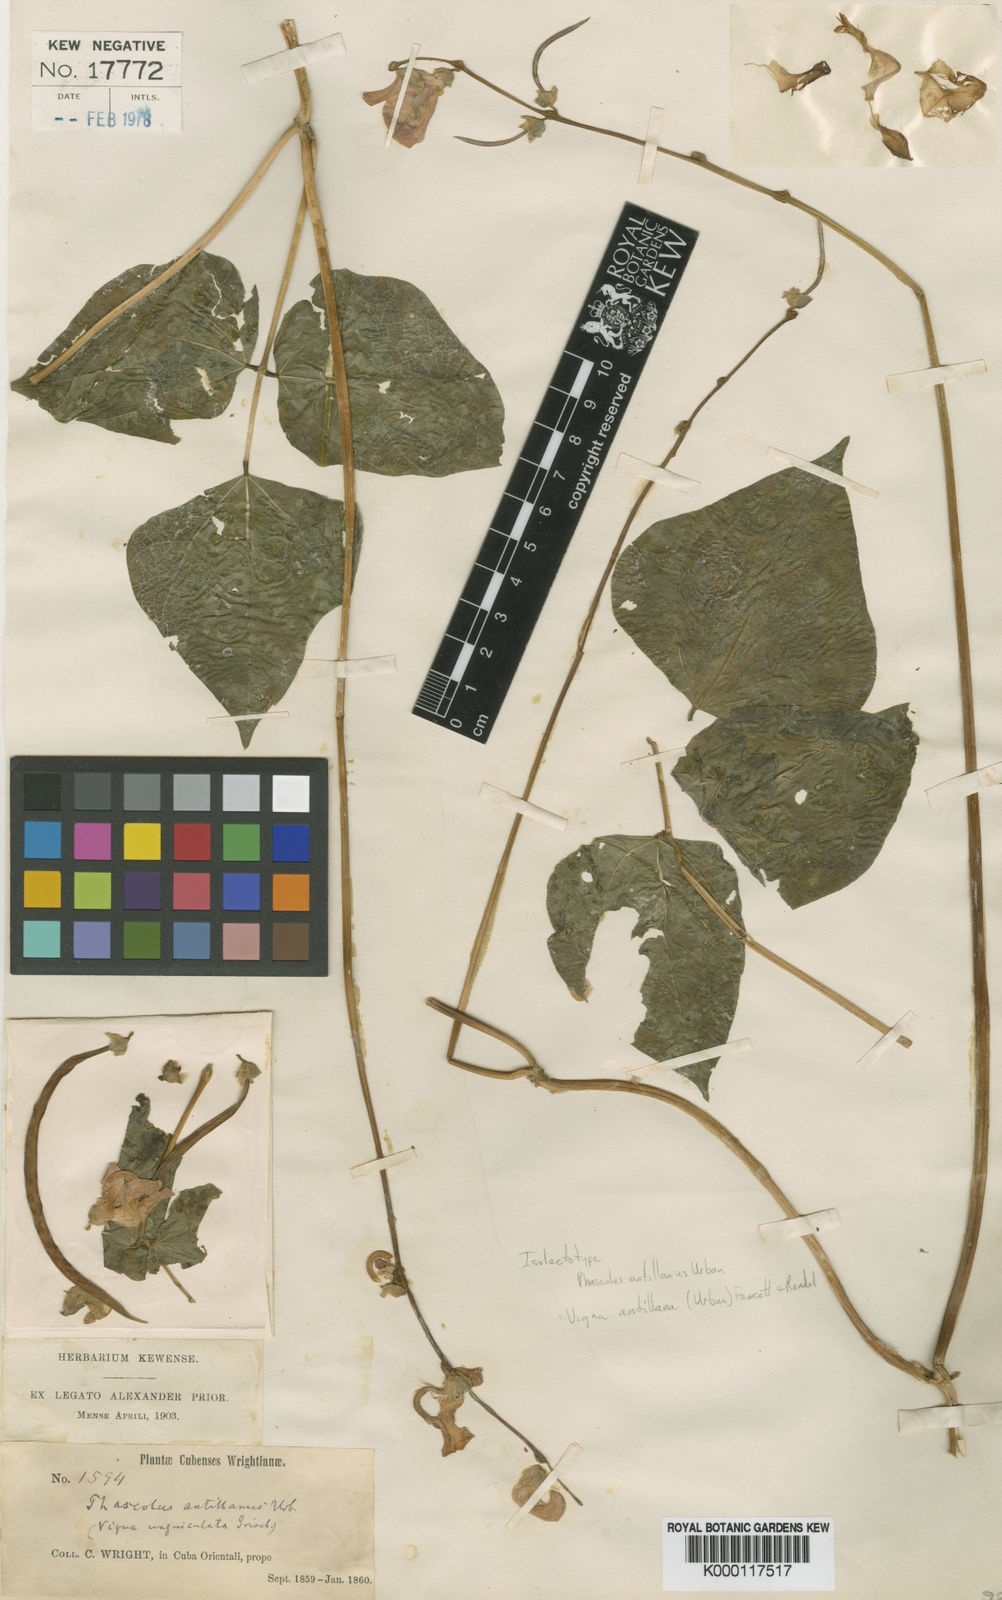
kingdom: Plantae
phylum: Tracheophyta
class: Magnoliopsida
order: Fabales
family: Fabaceae
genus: Sigmoidotropis
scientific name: Sigmoidotropis antillana
